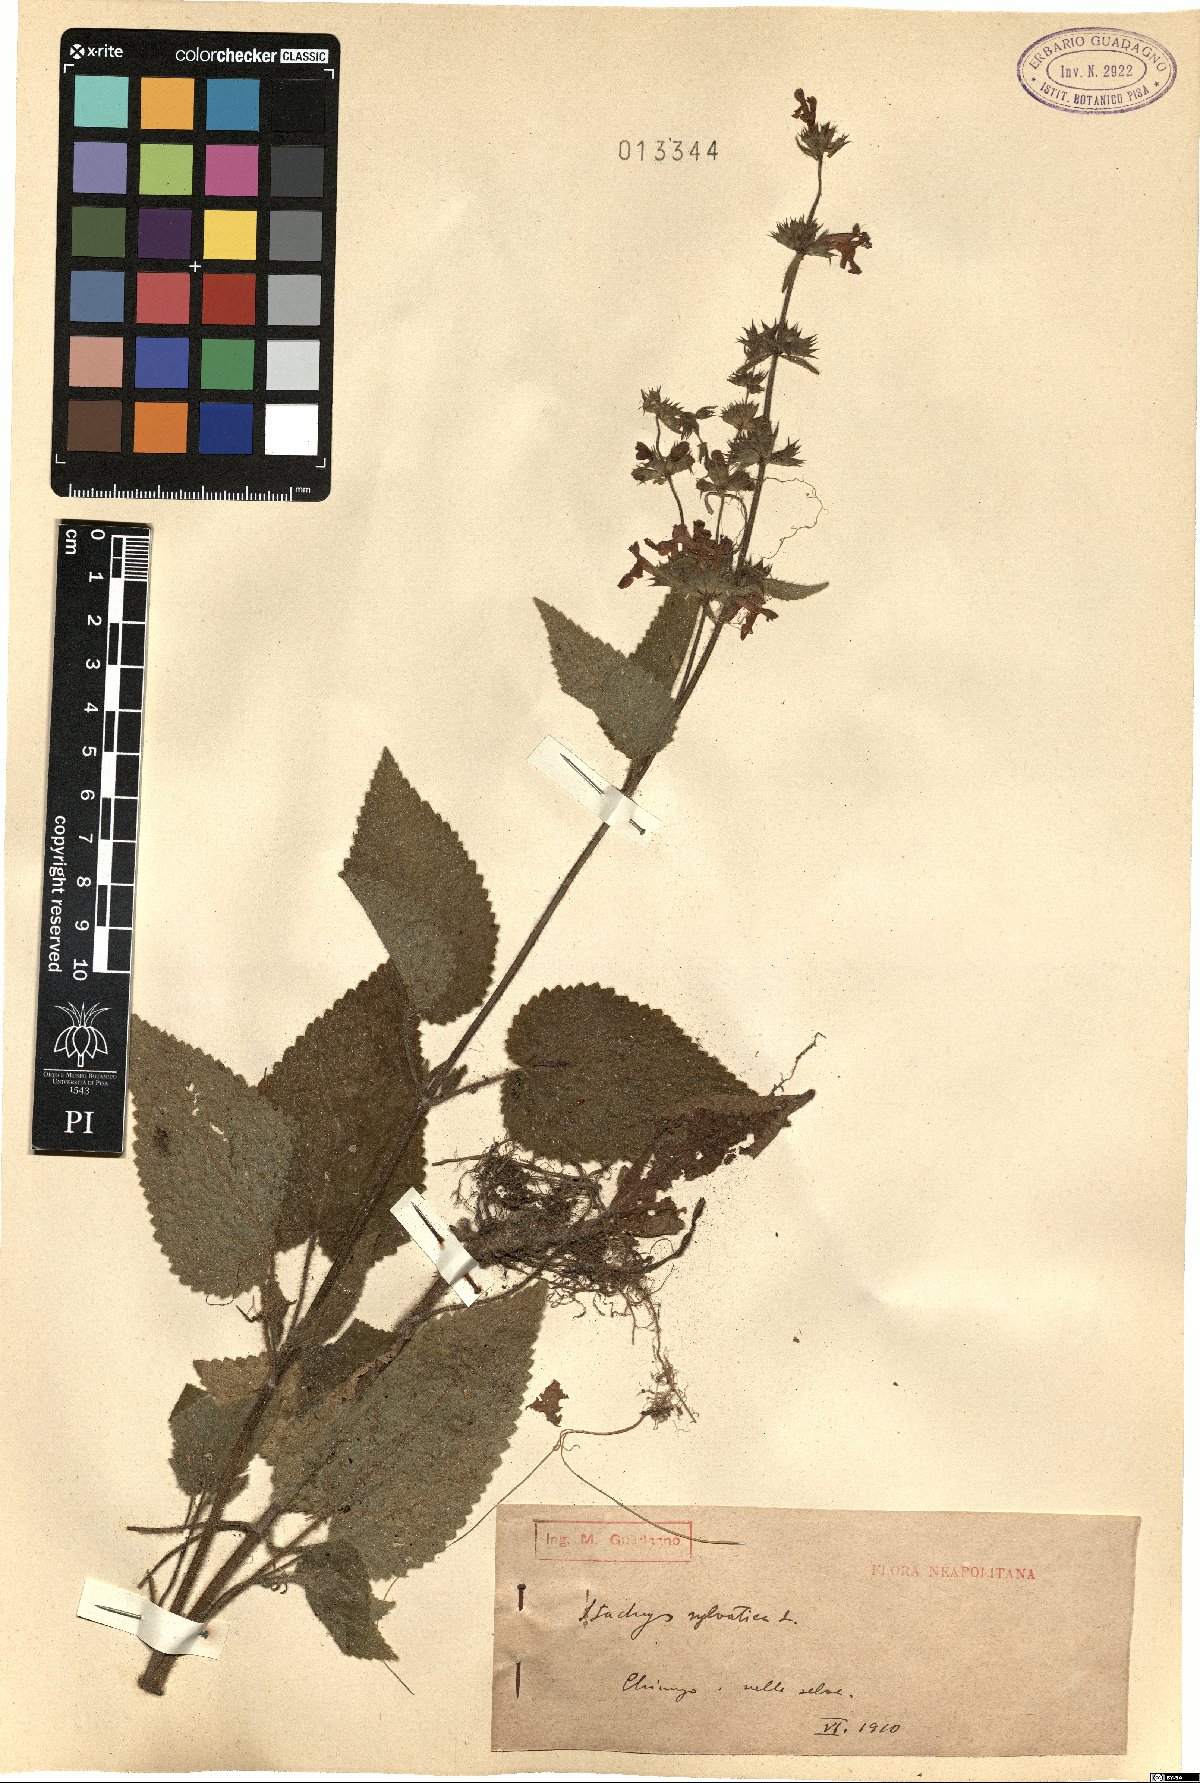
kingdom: Plantae
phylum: Tracheophyta
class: Magnoliopsida
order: Lamiales
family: Lamiaceae
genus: Stachys
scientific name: Stachys sylvatica
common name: Hedge woundwort
